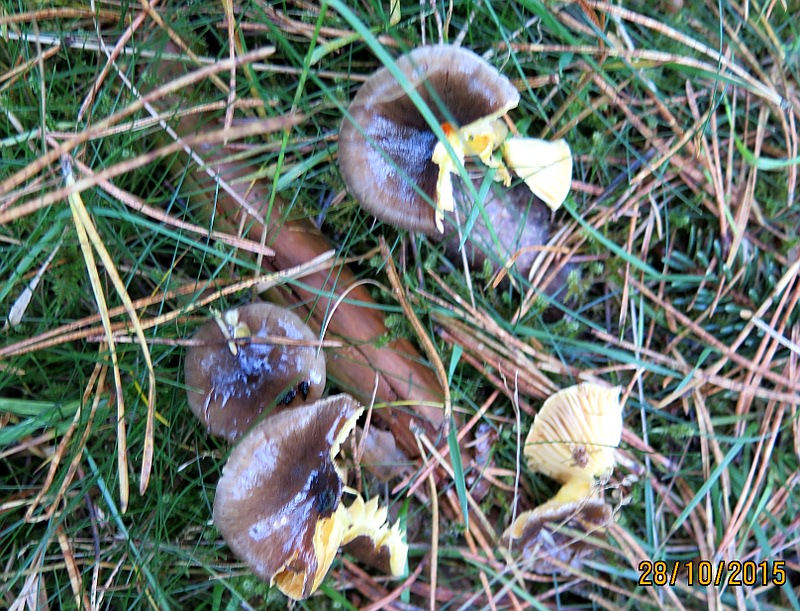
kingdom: Fungi
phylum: Basidiomycota
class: Agaricomycetes
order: Agaricales
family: Hygrophoraceae
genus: Hygrophorus
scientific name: Hygrophorus hypothejus
